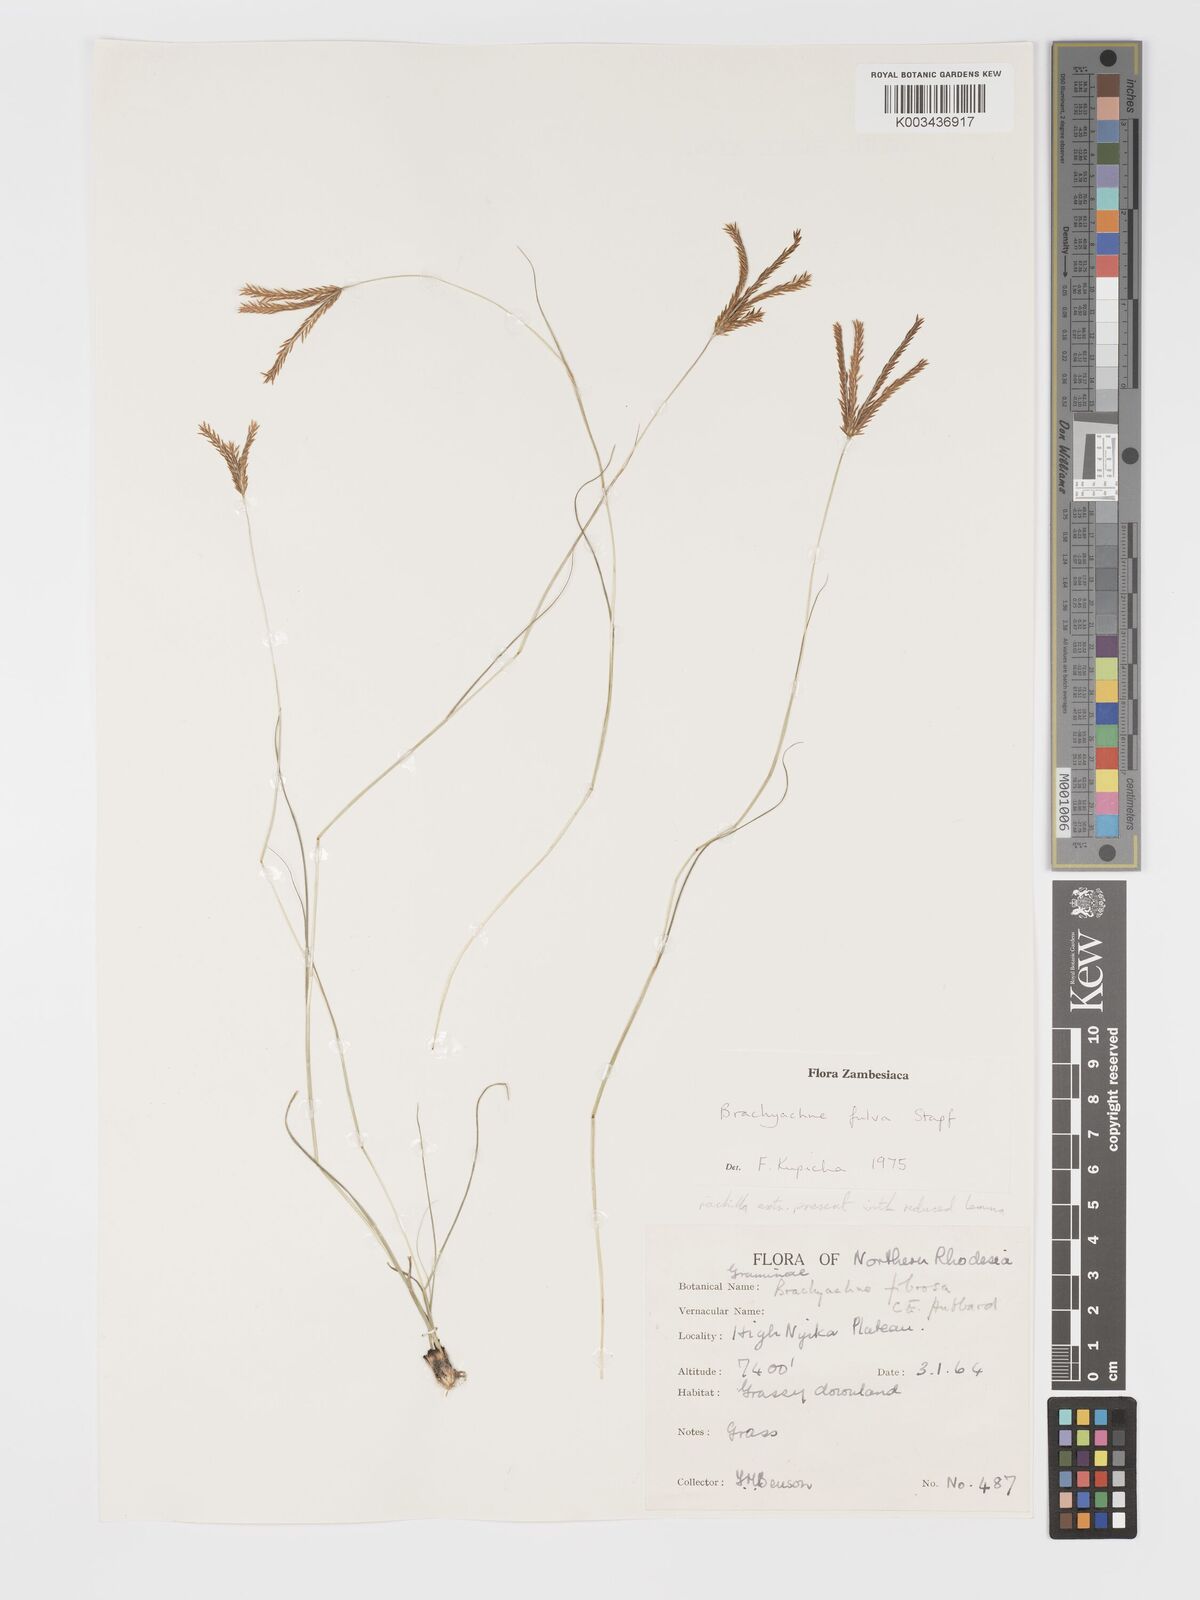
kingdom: Plantae
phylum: Tracheophyta
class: Liliopsida
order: Poales
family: Poaceae
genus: Micrachne
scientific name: Micrachne fulva
